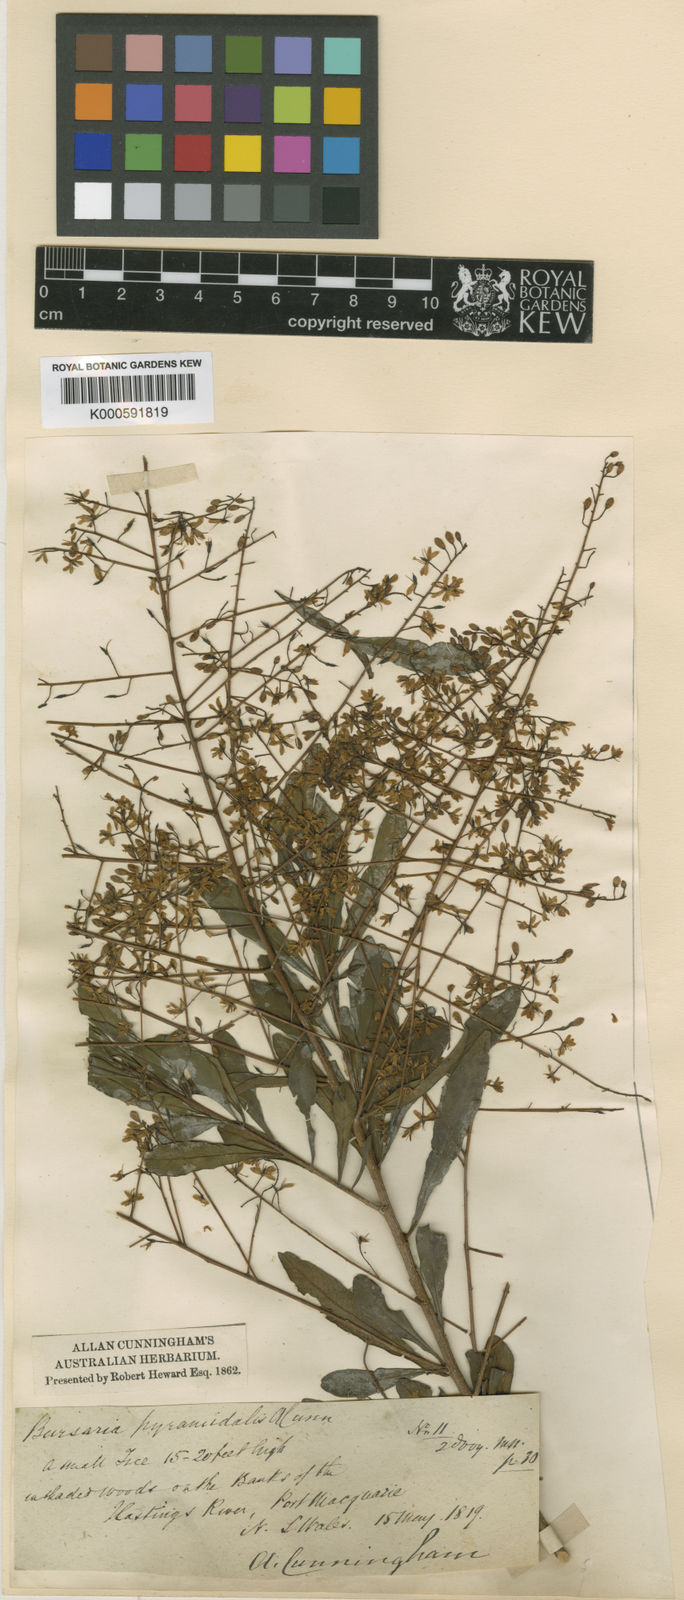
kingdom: Plantae
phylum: Tracheophyta
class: Magnoliopsida
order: Apiales
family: Pittosporaceae
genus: Bursaria
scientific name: Bursaria spinosa
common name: Australian blackthorn
